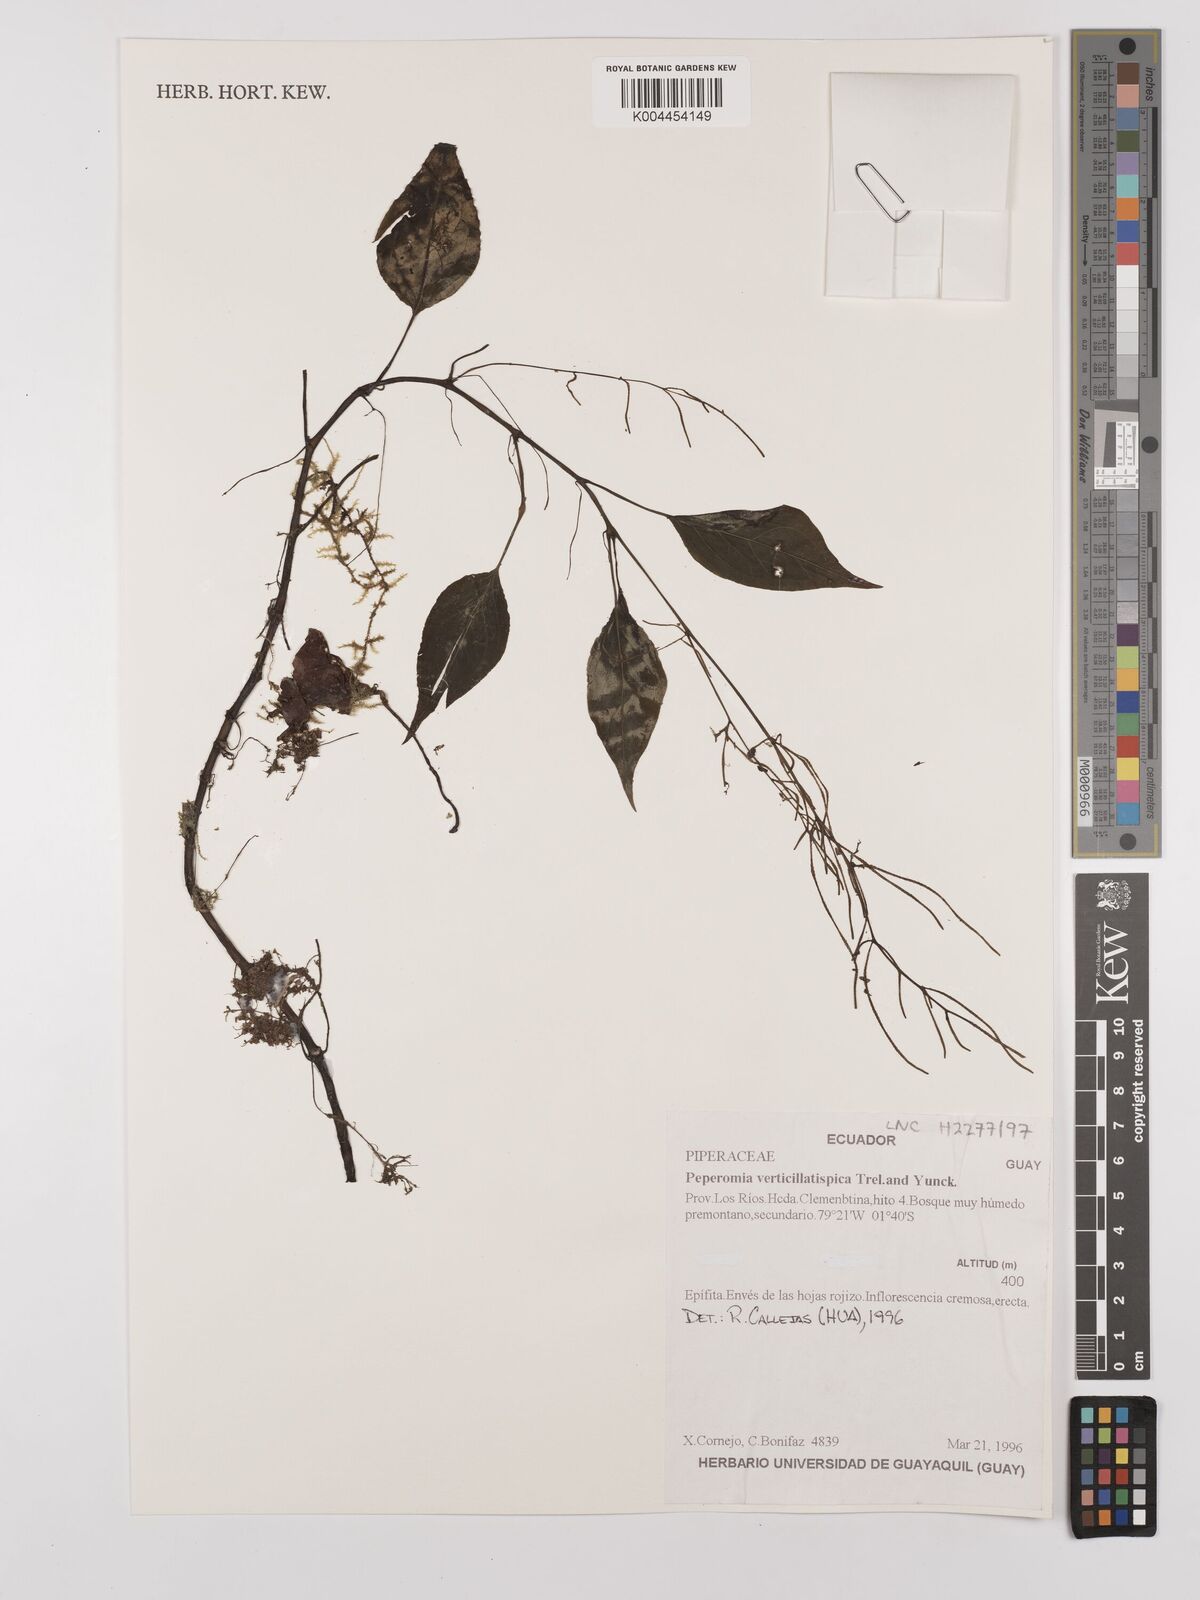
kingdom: Plantae
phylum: Tracheophyta
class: Magnoliopsida
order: Piperales
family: Piperaceae
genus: Peperomia
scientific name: Peperomia verticillatispica
